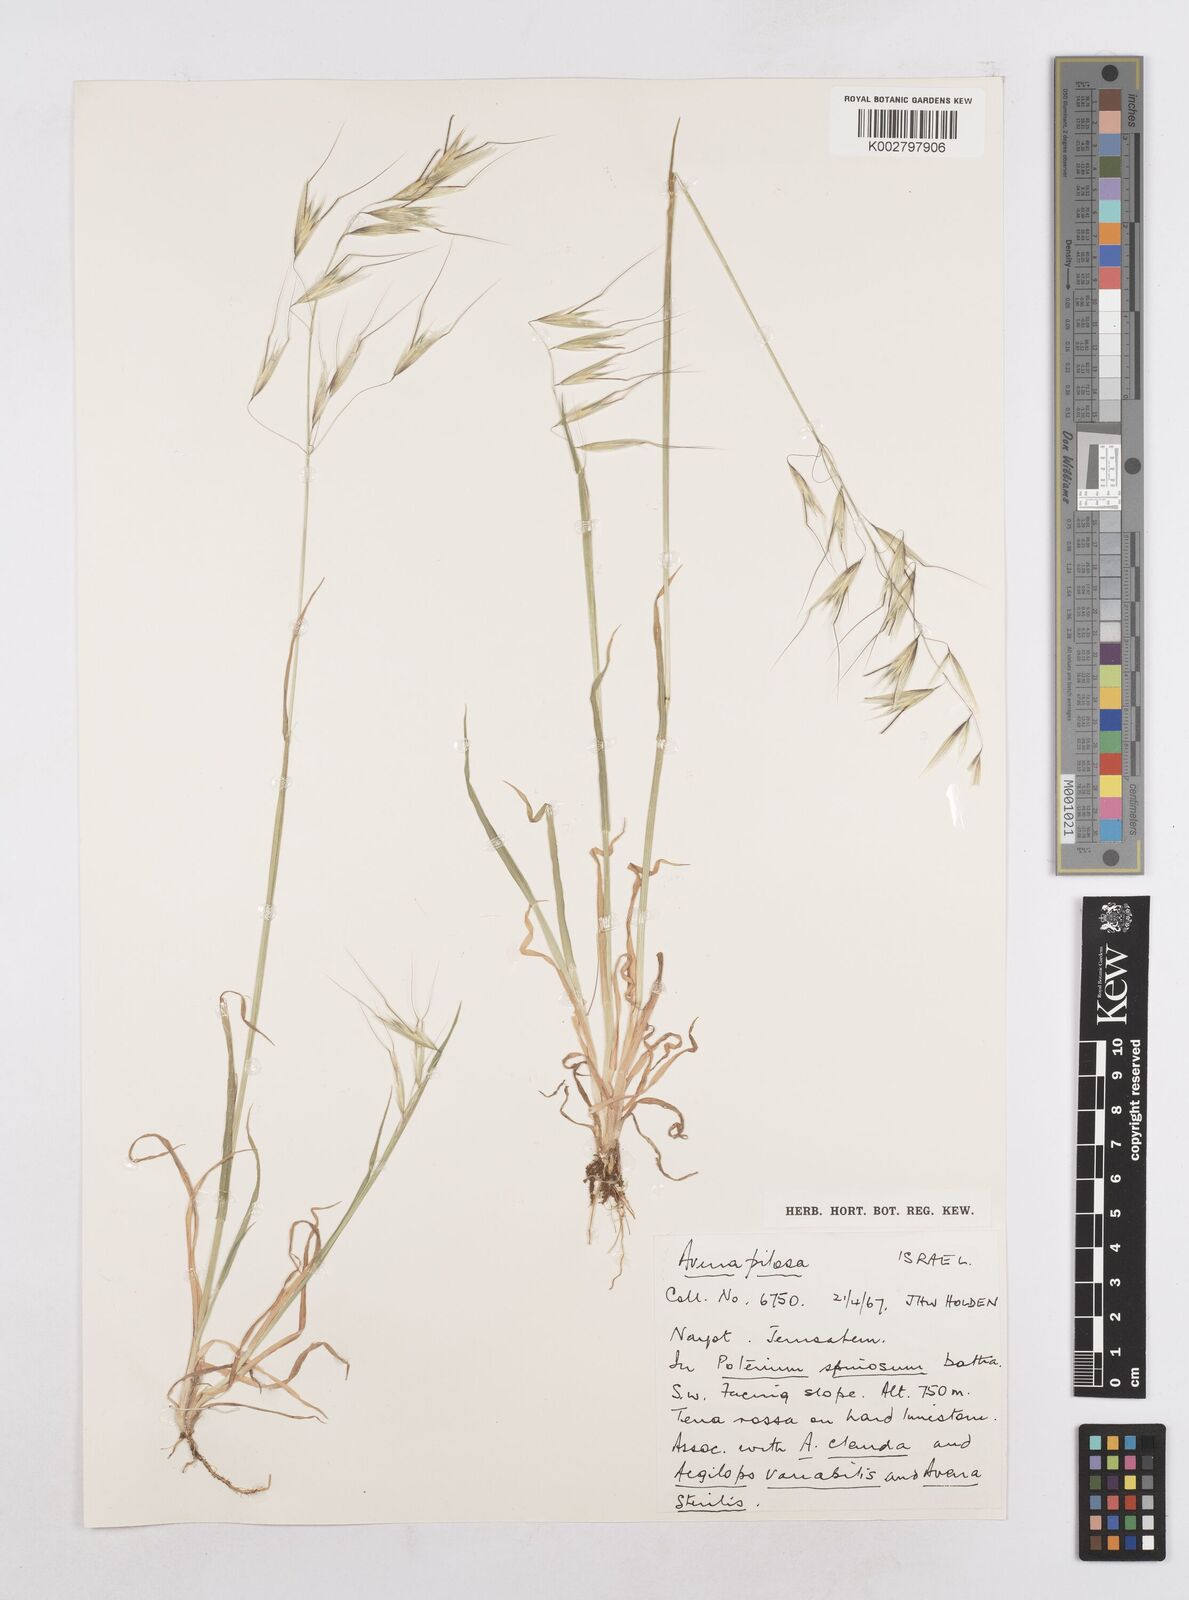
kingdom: Plantae
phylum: Tracheophyta
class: Liliopsida
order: Poales
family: Poaceae
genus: Avena
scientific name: Avena
